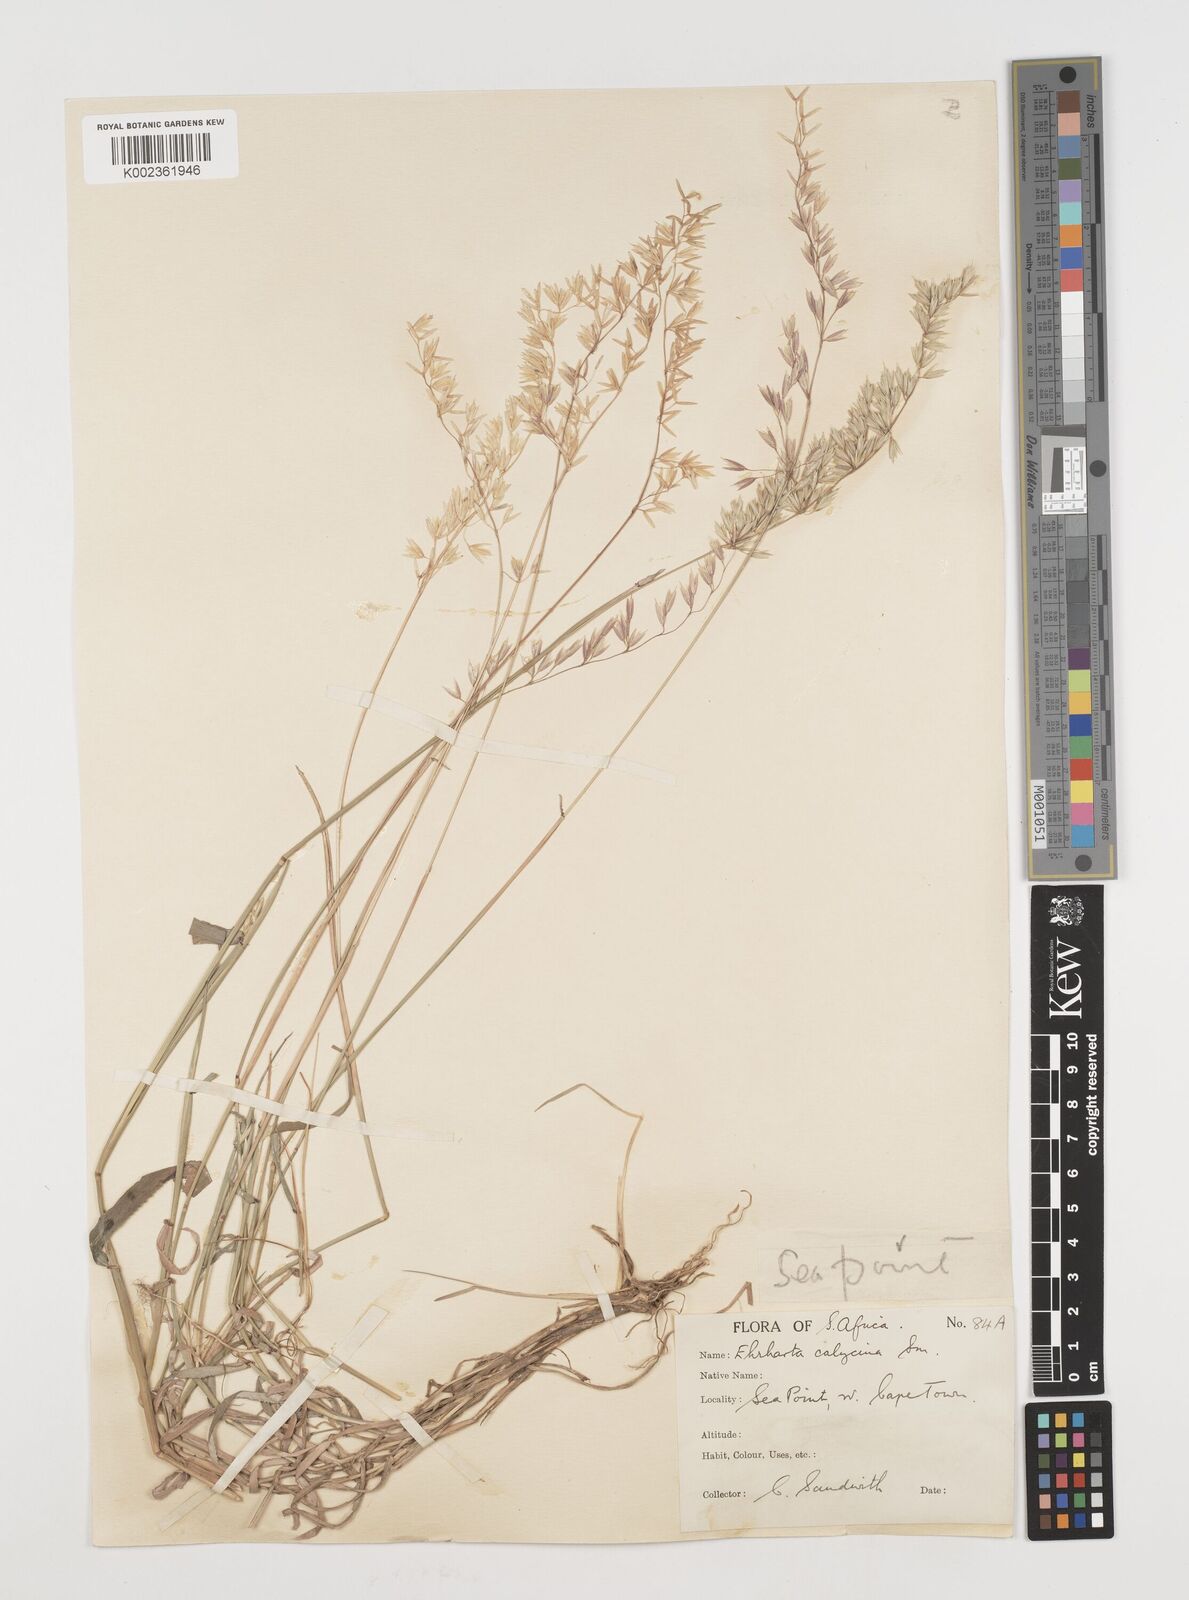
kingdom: Plantae
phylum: Tracheophyta
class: Liliopsida
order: Poales
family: Poaceae
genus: Ehrharta
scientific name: Ehrharta calycina
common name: Perennial veldtgrass
